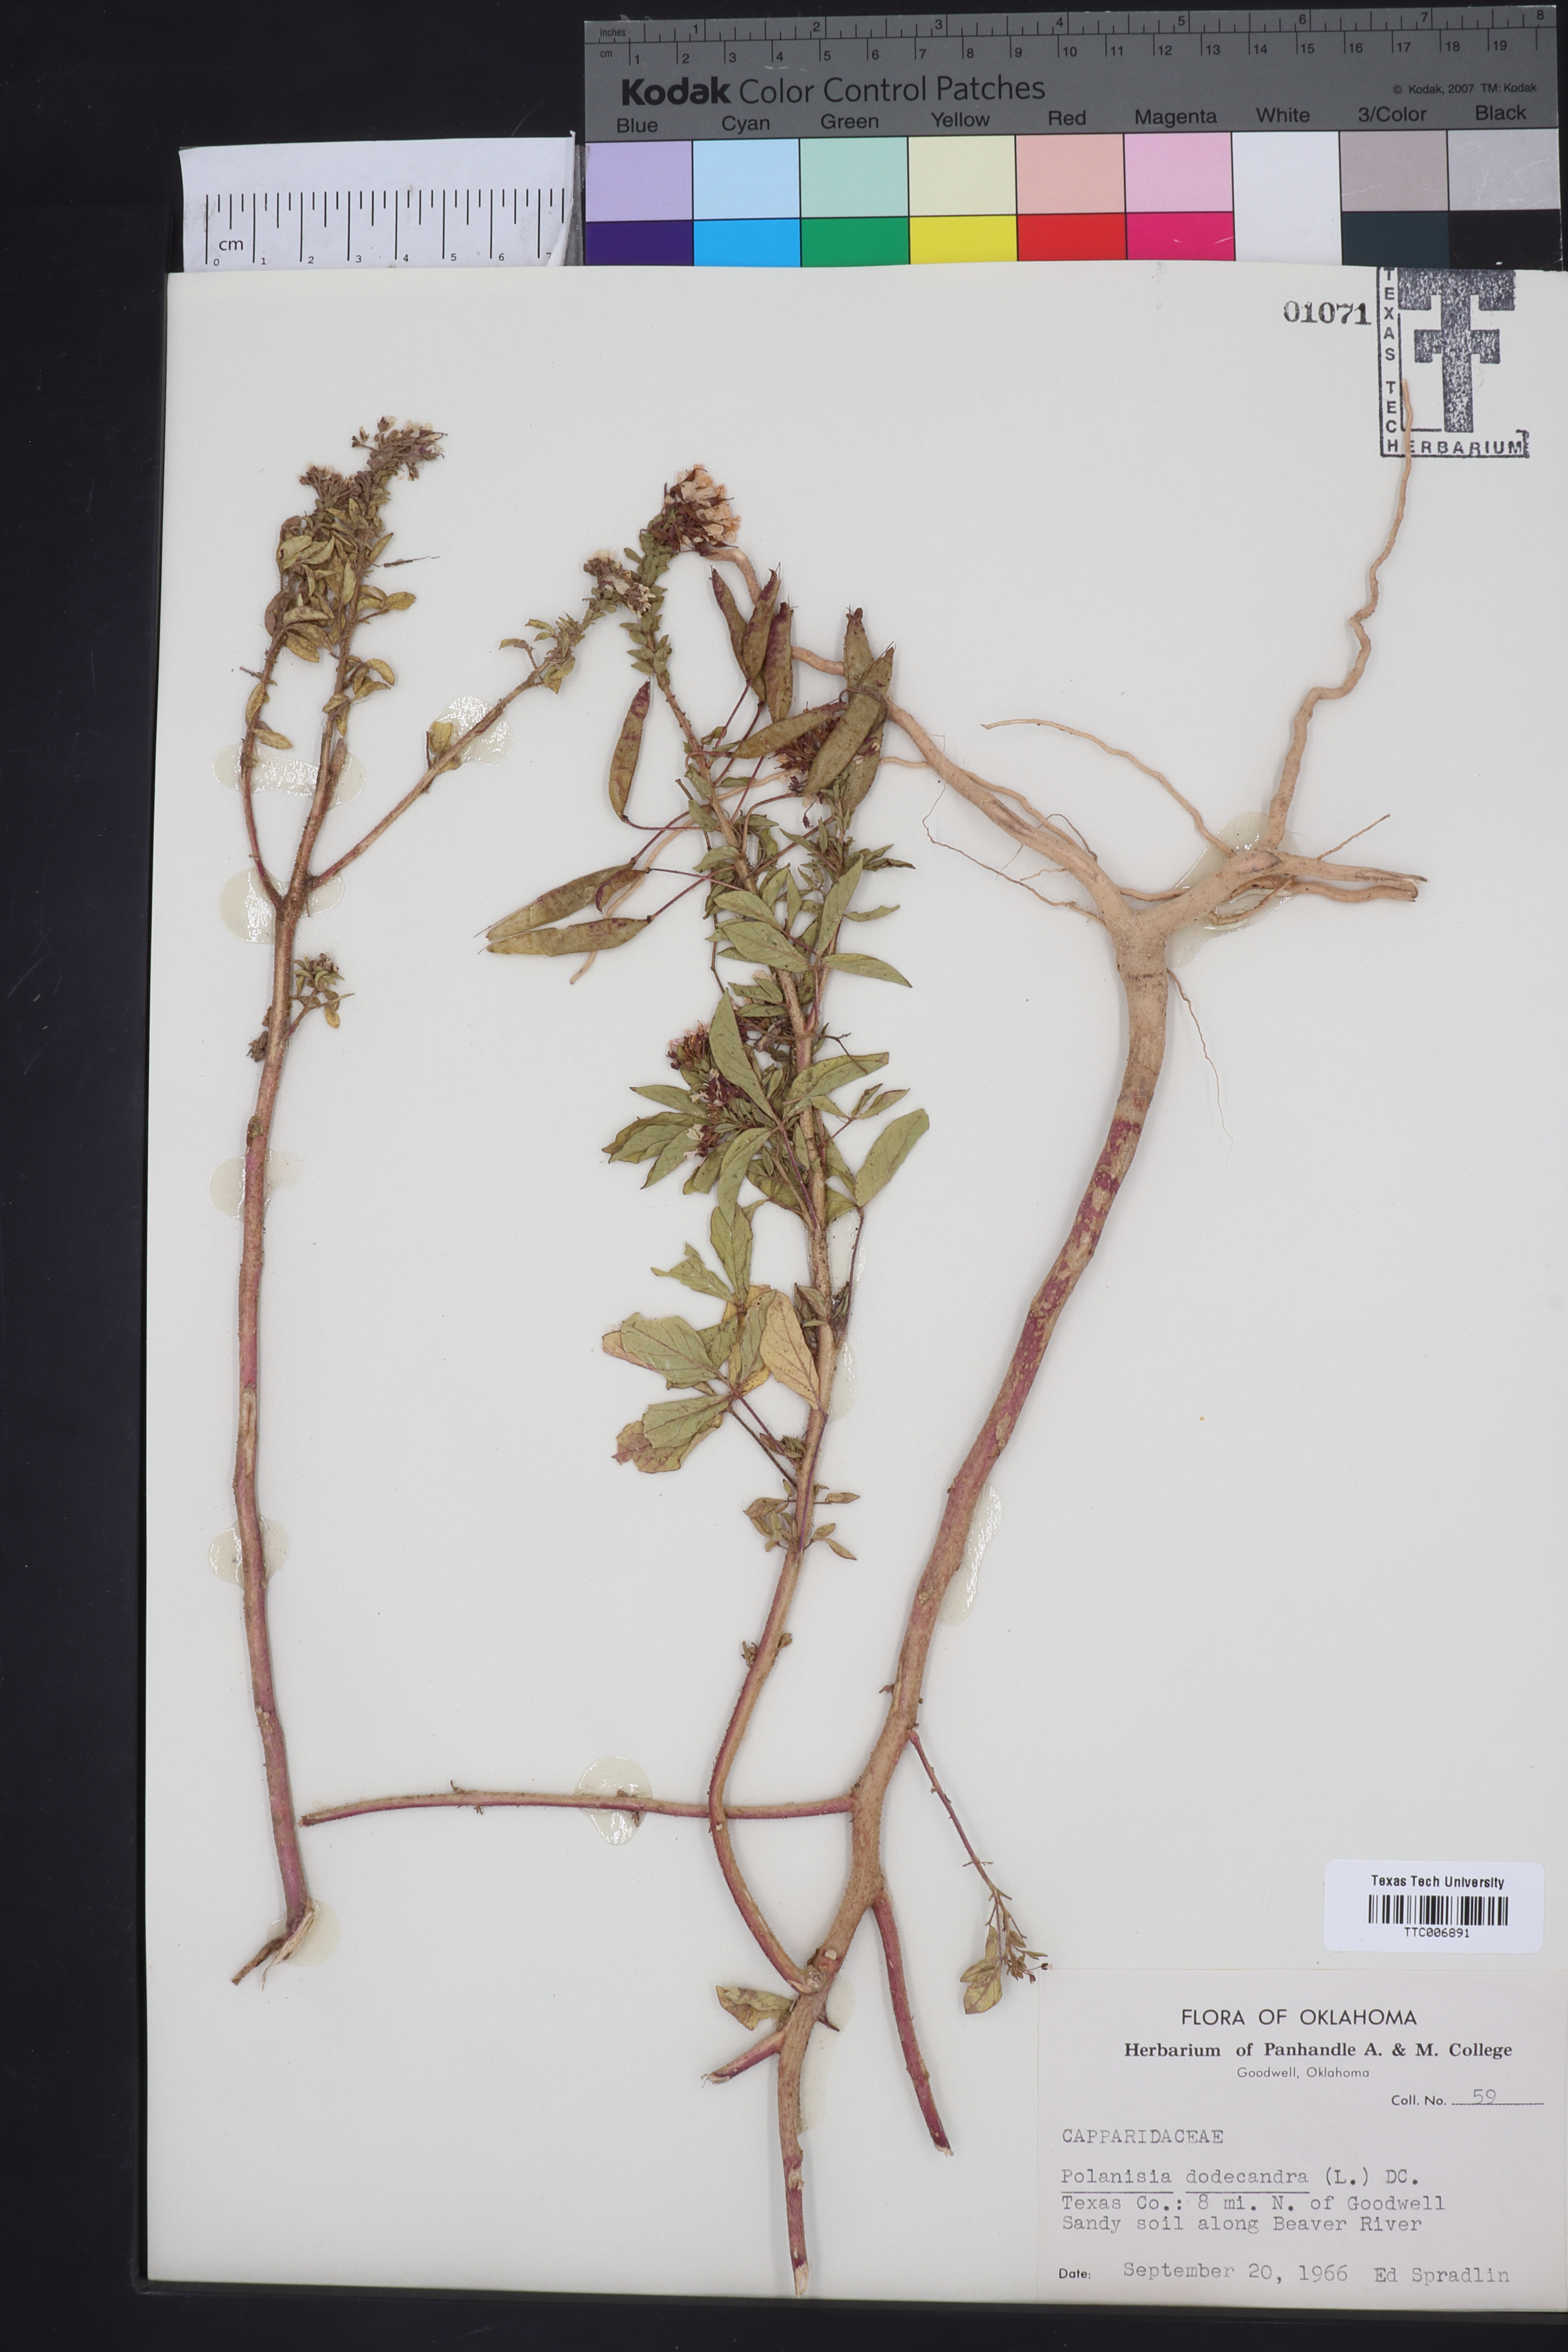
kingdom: Plantae
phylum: Tracheophyta
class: Magnoliopsida
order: Brassicales
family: Cleomaceae
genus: Polanisia
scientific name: Polanisia dodecandra
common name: Clammyweed
